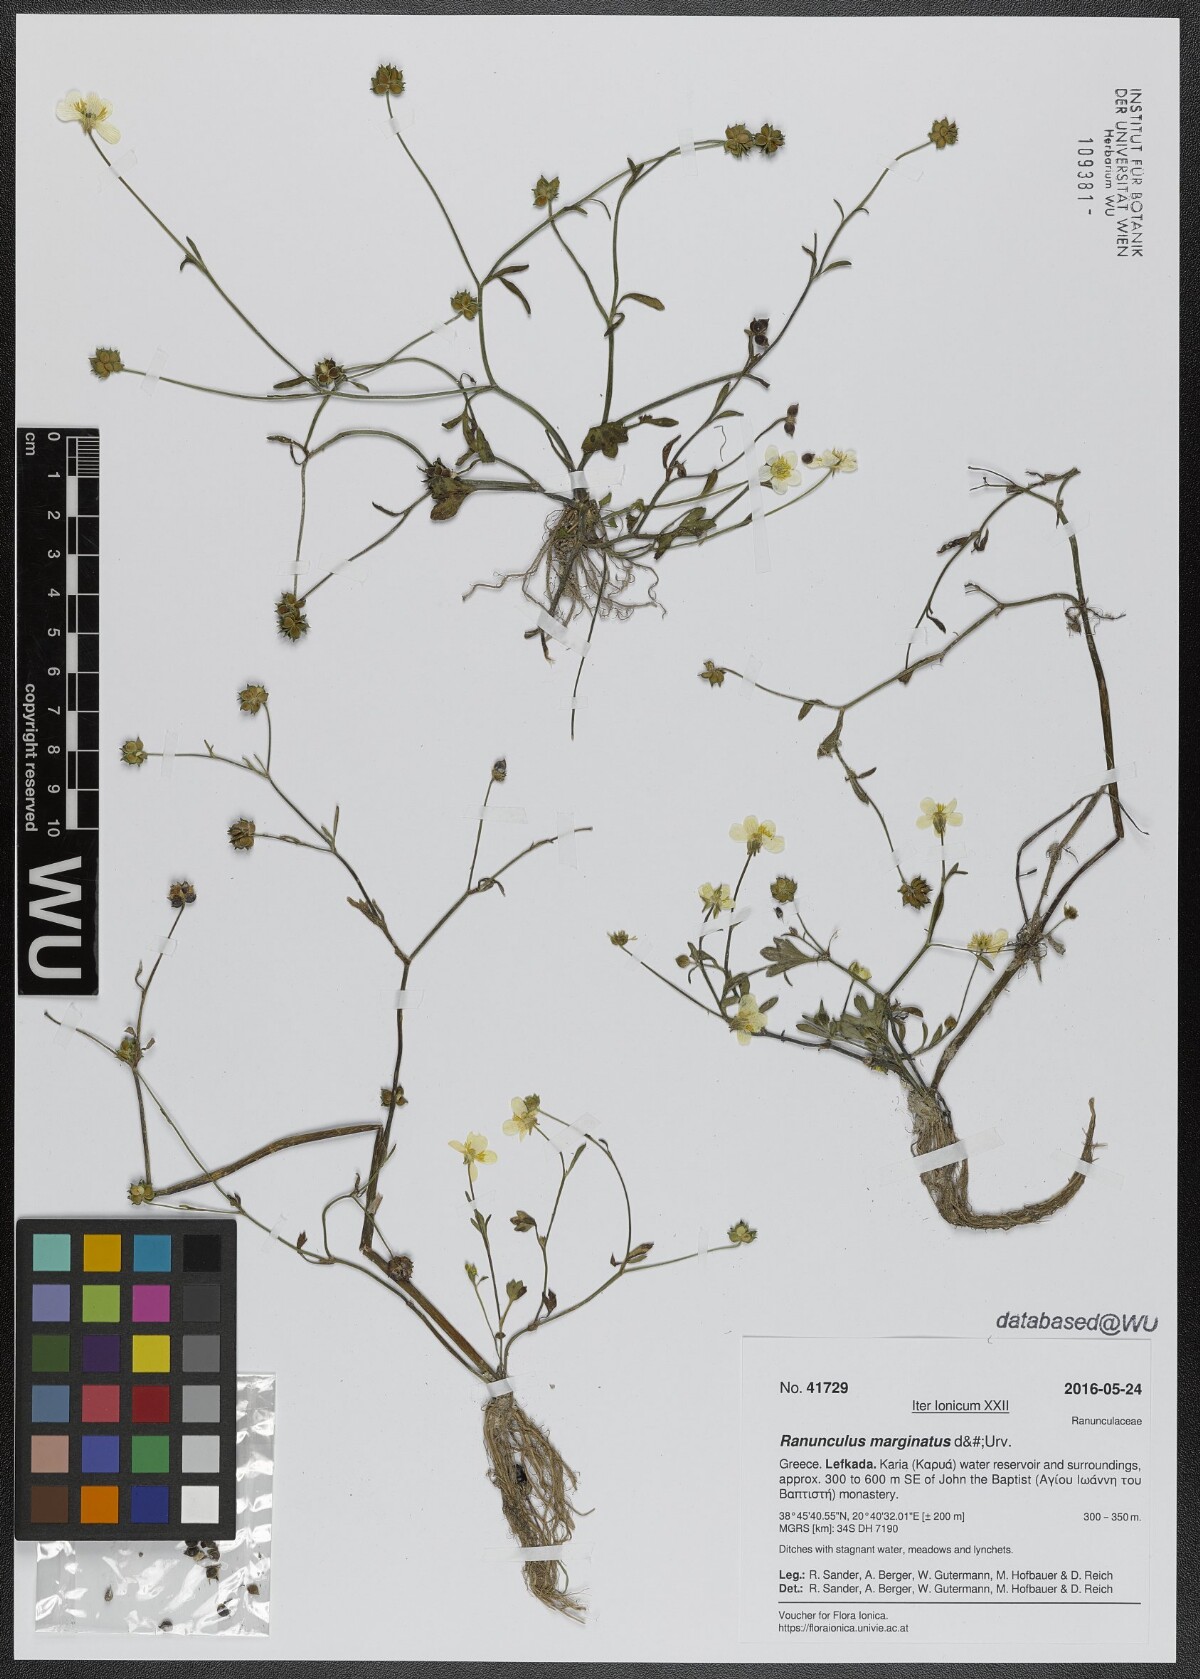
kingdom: Plantae
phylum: Tracheophyta
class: Magnoliopsida
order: Ranunculales
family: Ranunculaceae
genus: Ranunculus
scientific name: Ranunculus marginatus
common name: St. martin's buttercup
